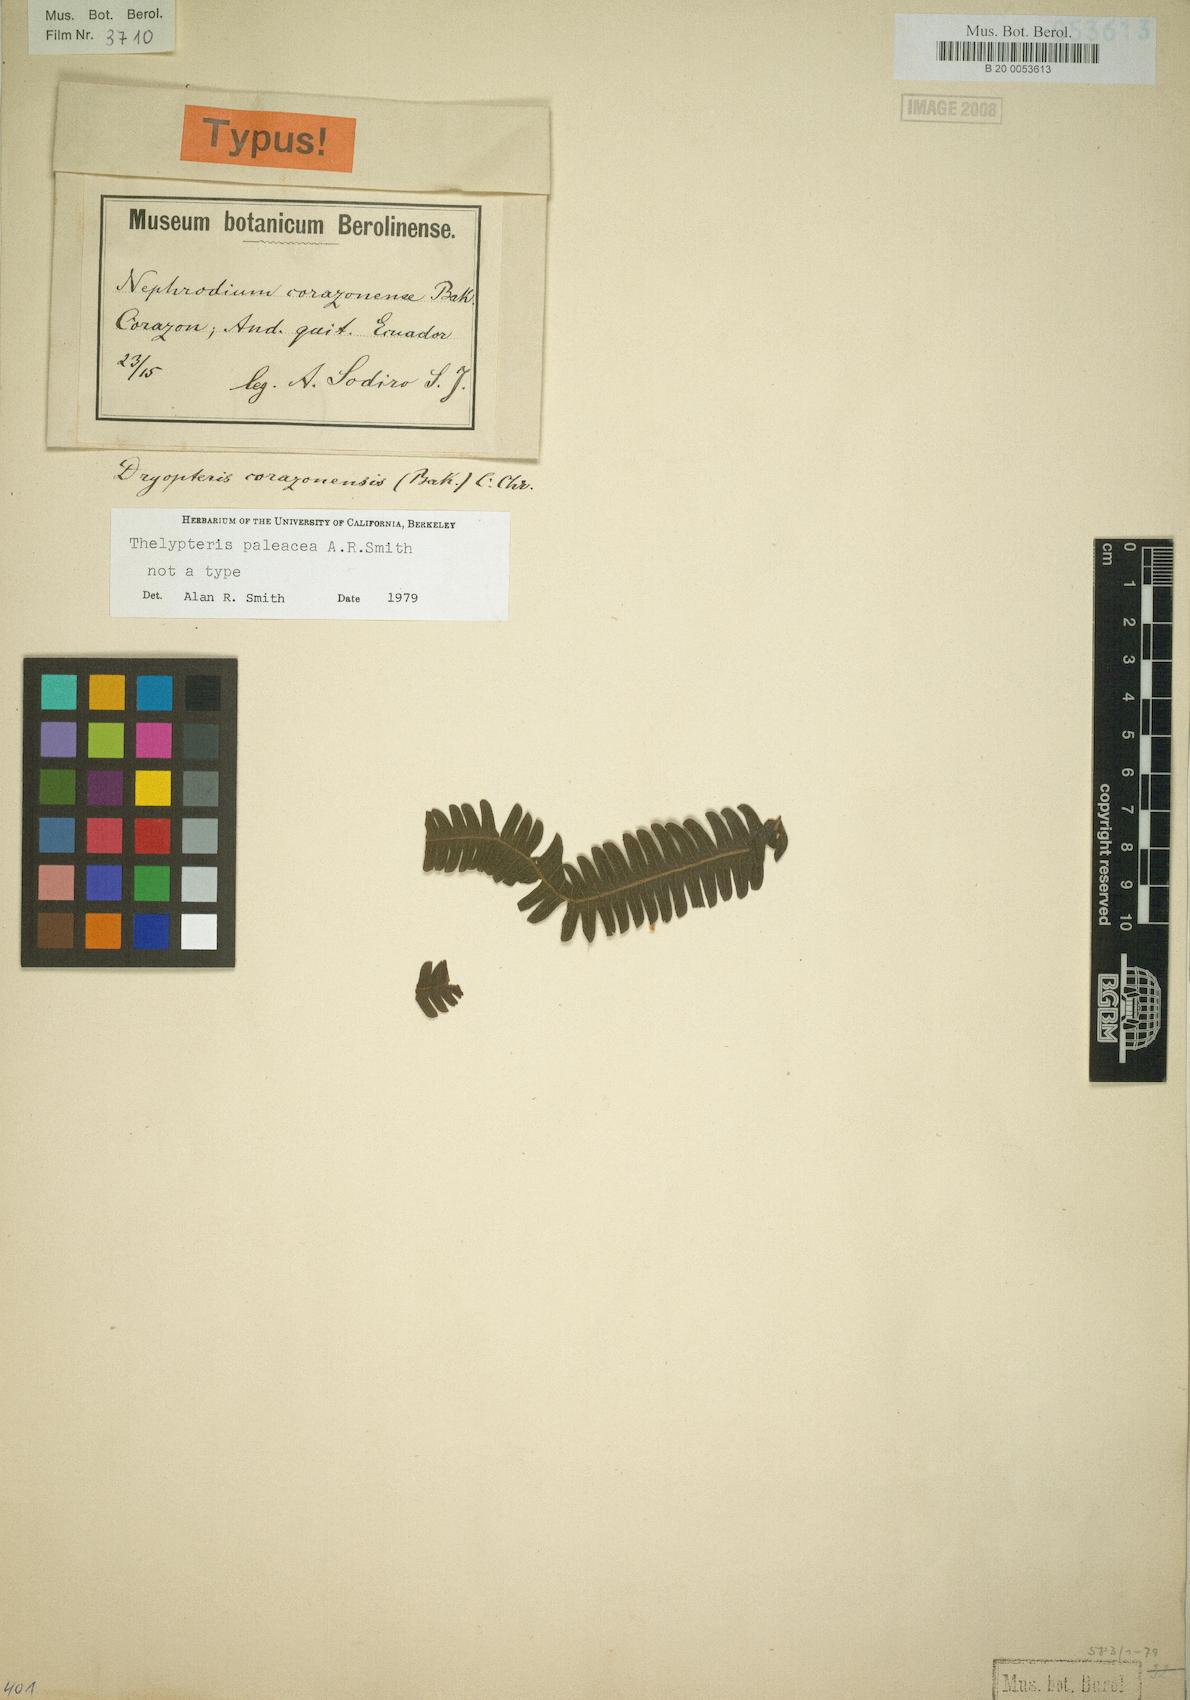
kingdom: Plantae
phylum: Tracheophyta
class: Polypodiopsida
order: Polypodiales
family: Thelypteridaceae
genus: Amauropelta
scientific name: Amauropelta paleacea
